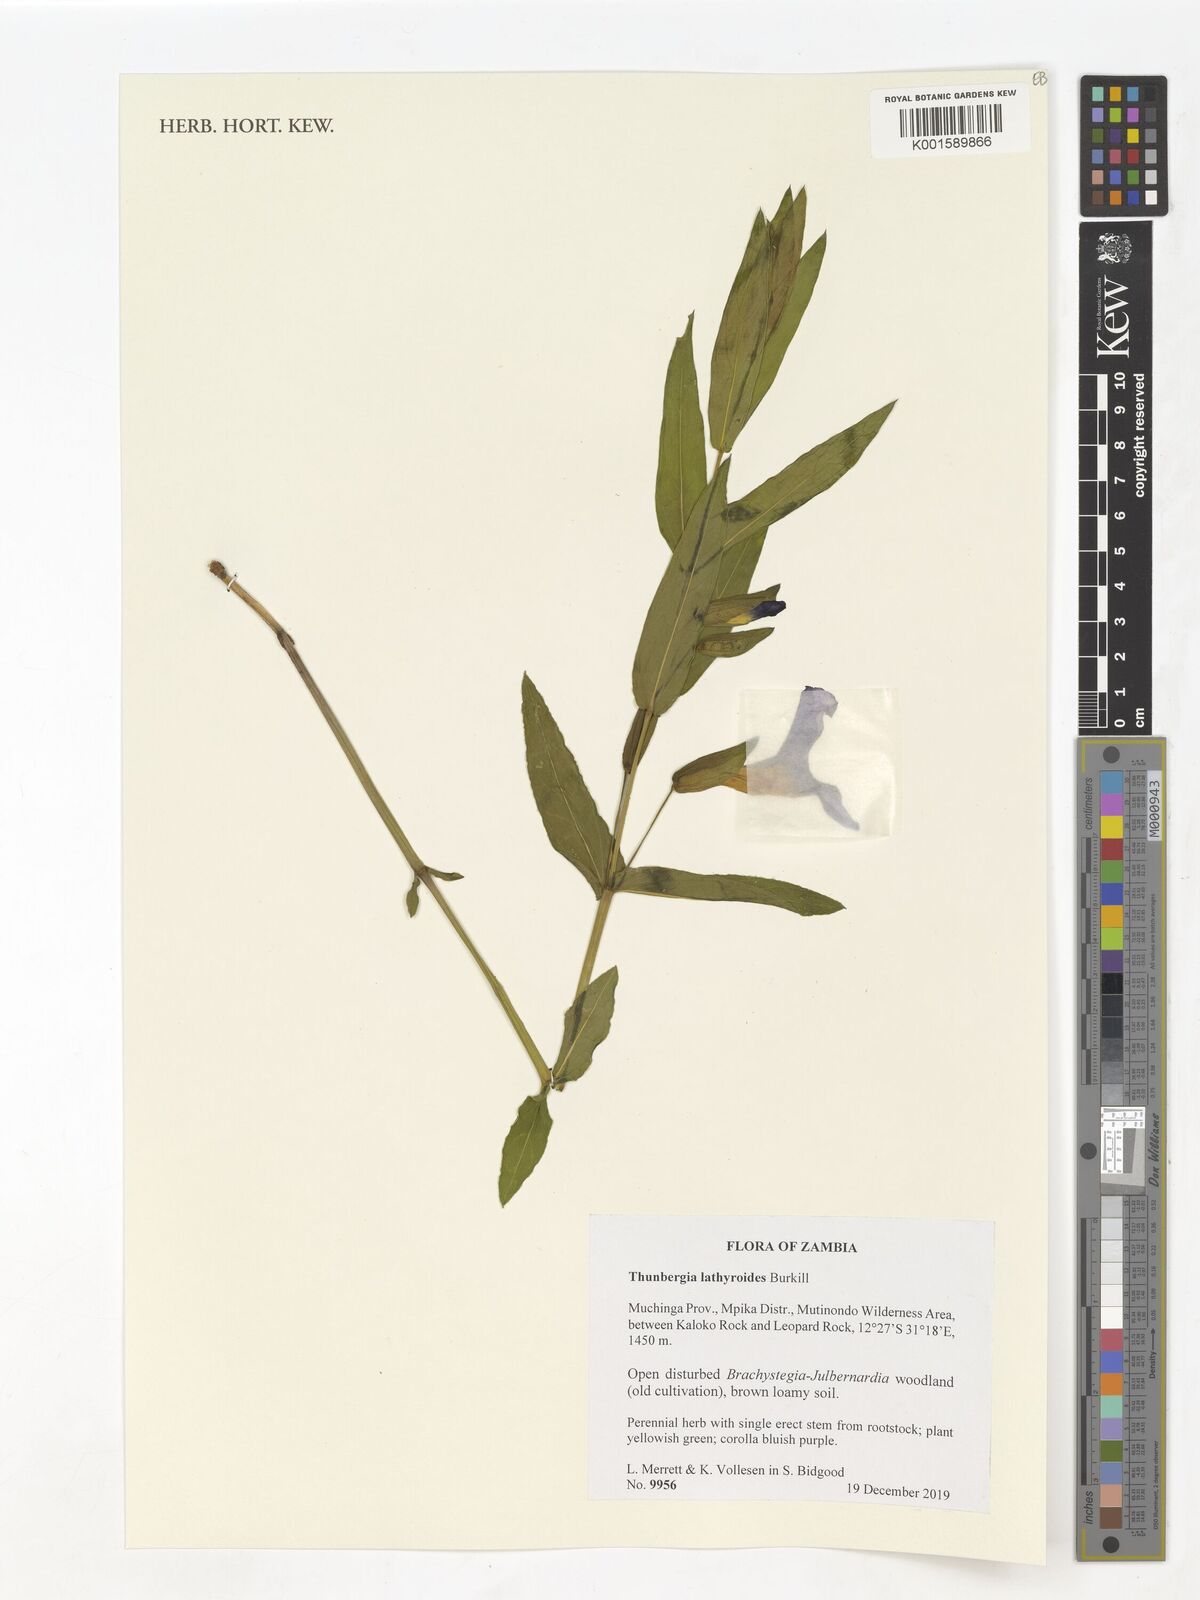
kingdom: Plantae
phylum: Tracheophyta
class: Magnoliopsida
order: Lamiales
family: Acanthaceae
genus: Thunbergia
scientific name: Thunbergia lathyroides
